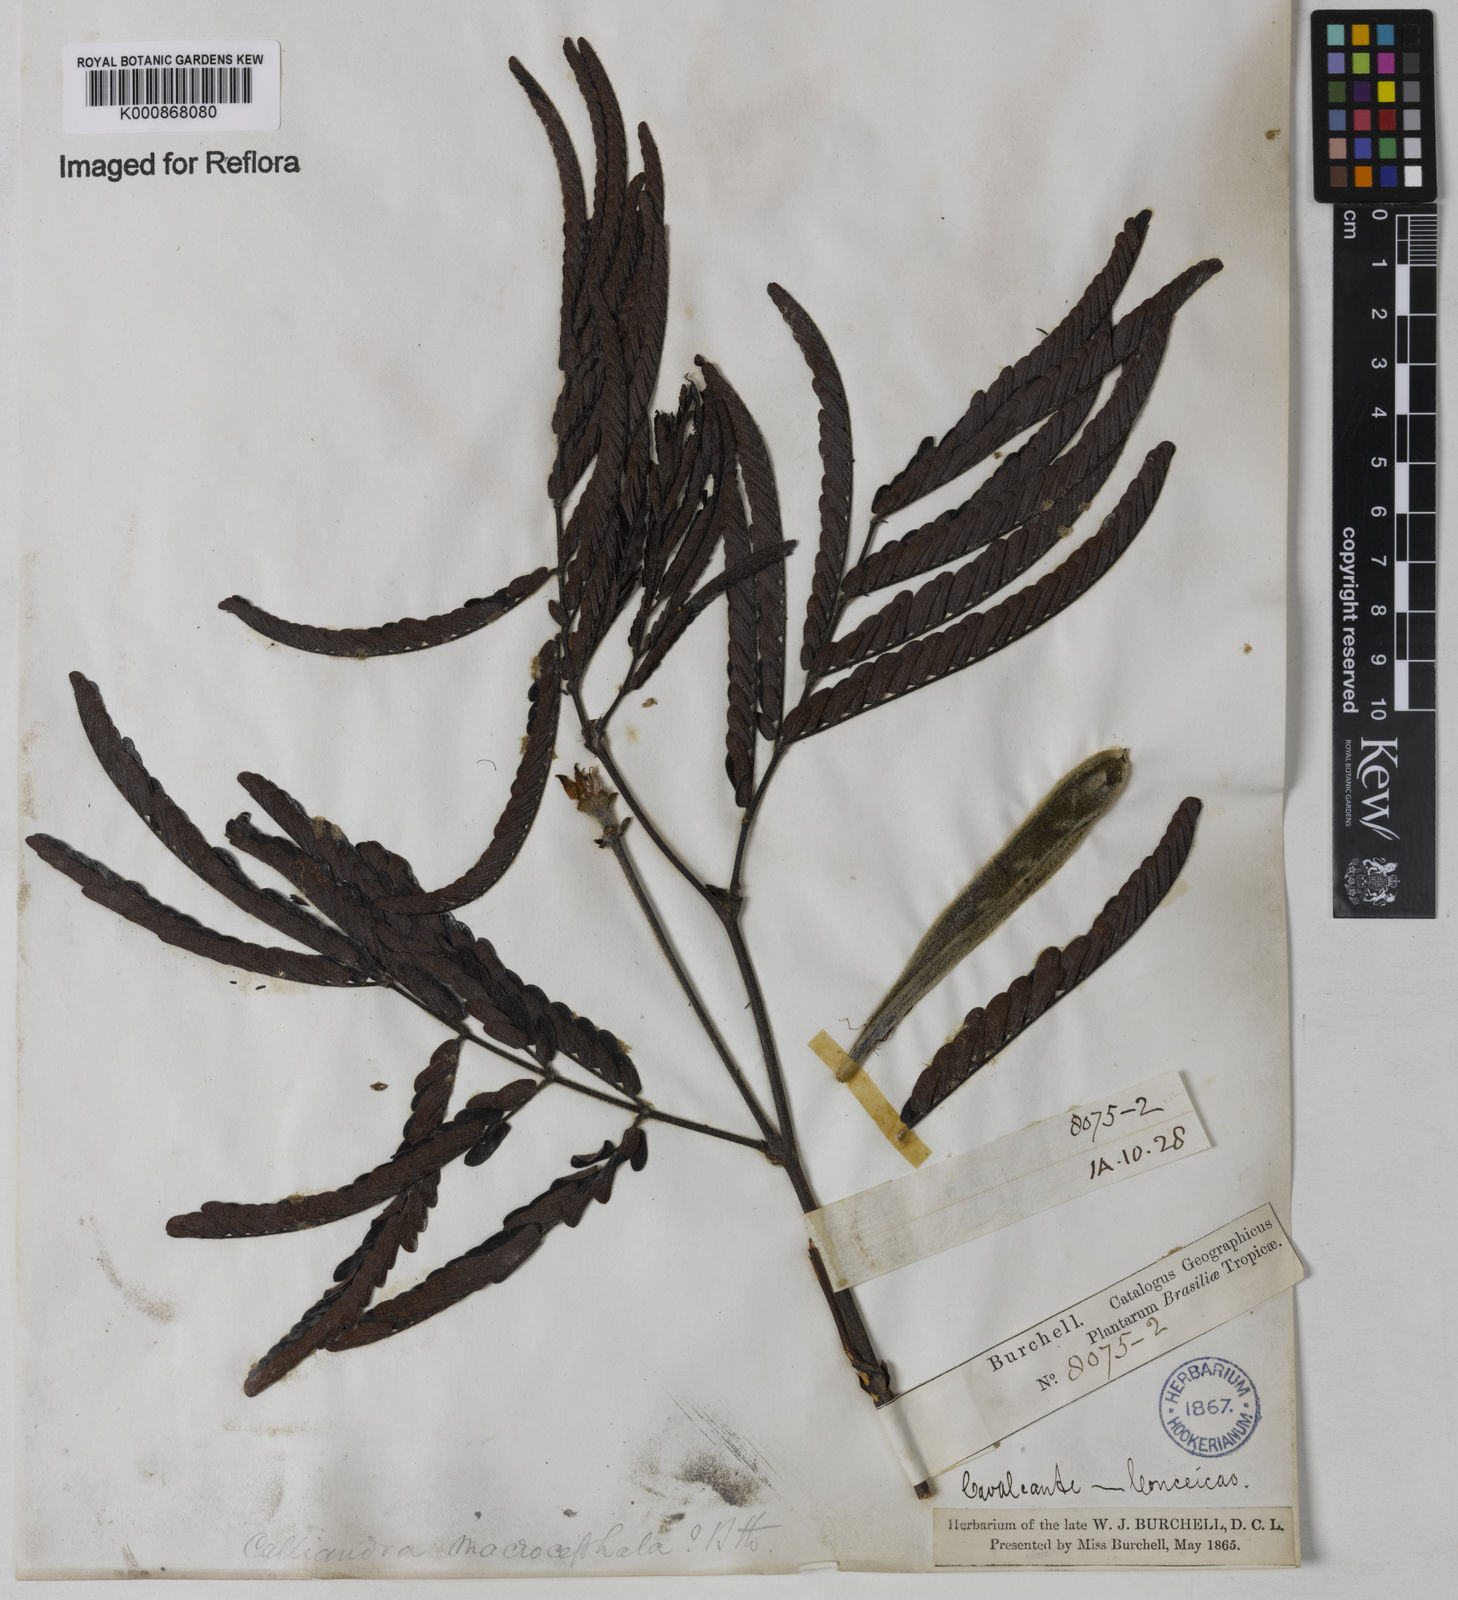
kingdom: Plantae
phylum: Tracheophyta
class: Magnoliopsida
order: Fabales
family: Fabaceae
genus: Calliandra
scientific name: Calliandra dysantha
